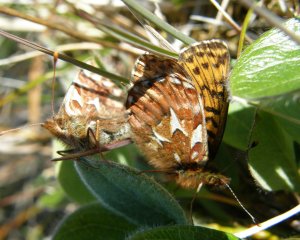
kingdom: Animalia
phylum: Arthropoda
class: Insecta
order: Lepidoptera
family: Nymphalidae
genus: Boloria
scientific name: Boloria chariclea
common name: Arctic Fritillary
